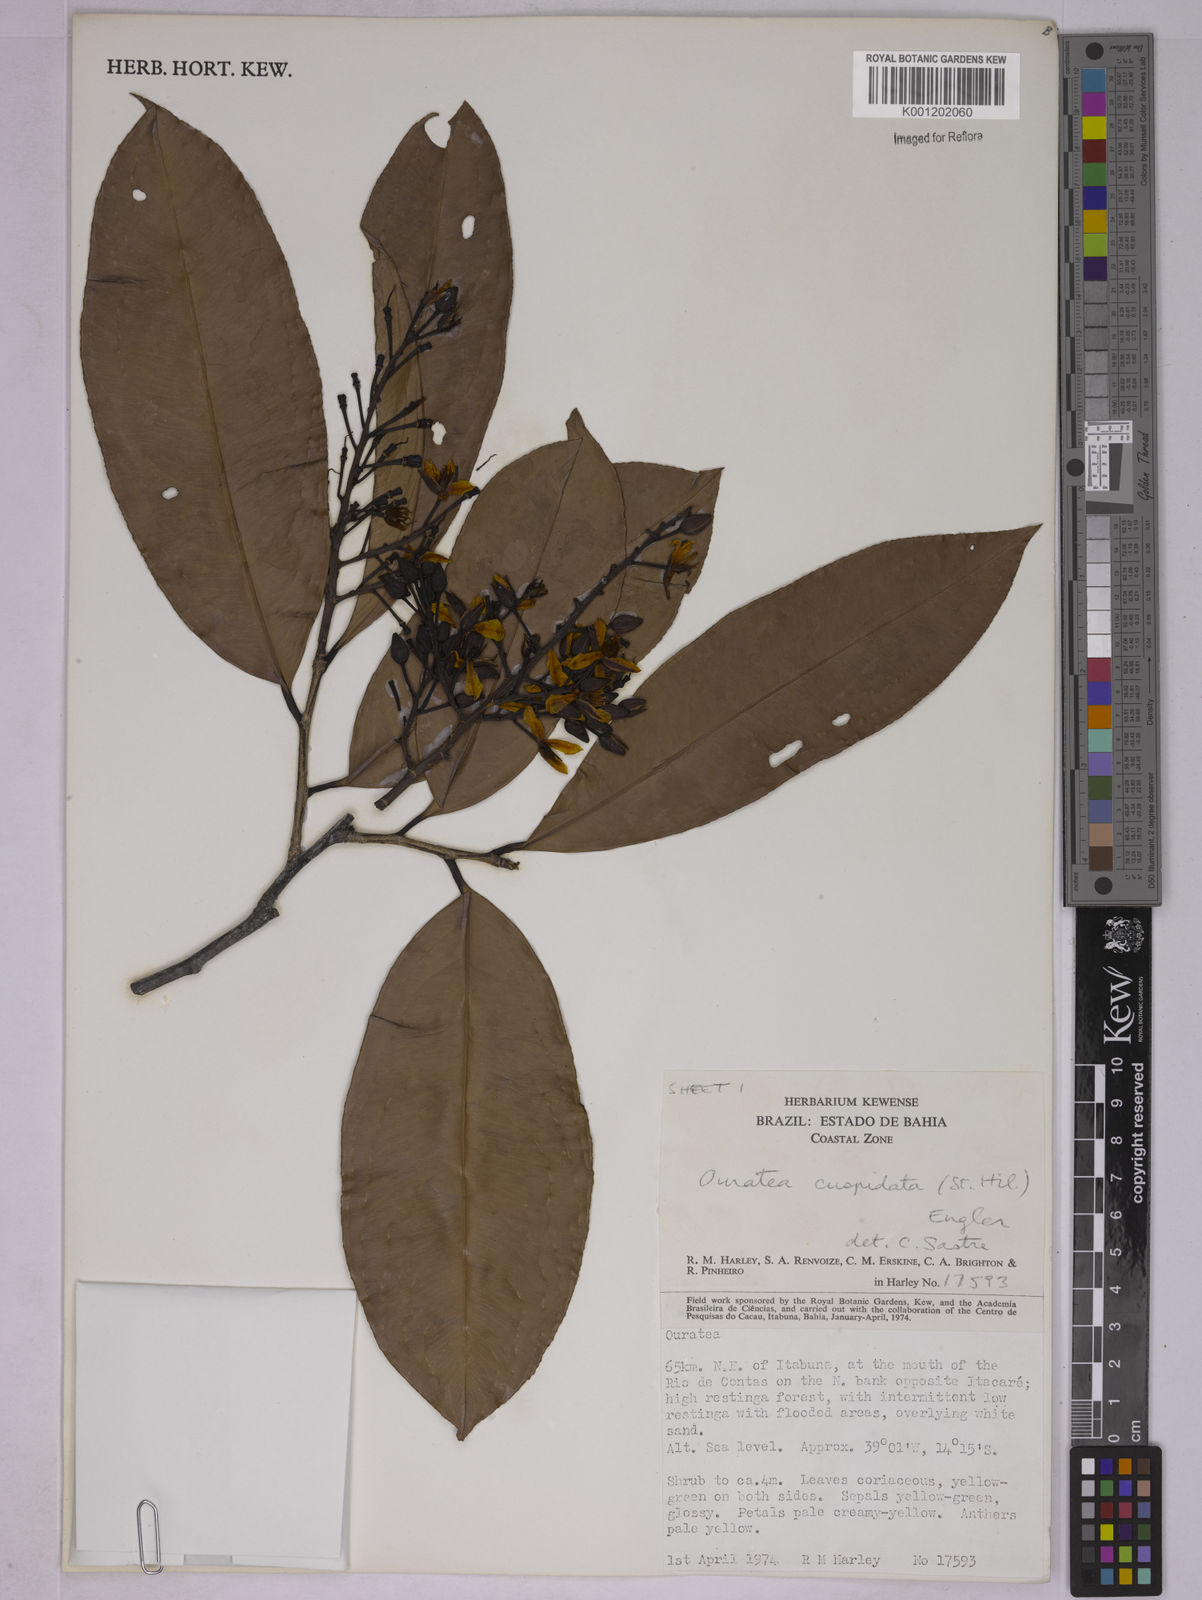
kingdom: Plantae
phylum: Tracheophyta
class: Magnoliopsida
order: Malpighiales
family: Ochnaceae
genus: Ouratea
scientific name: Ouratea cuspidata
